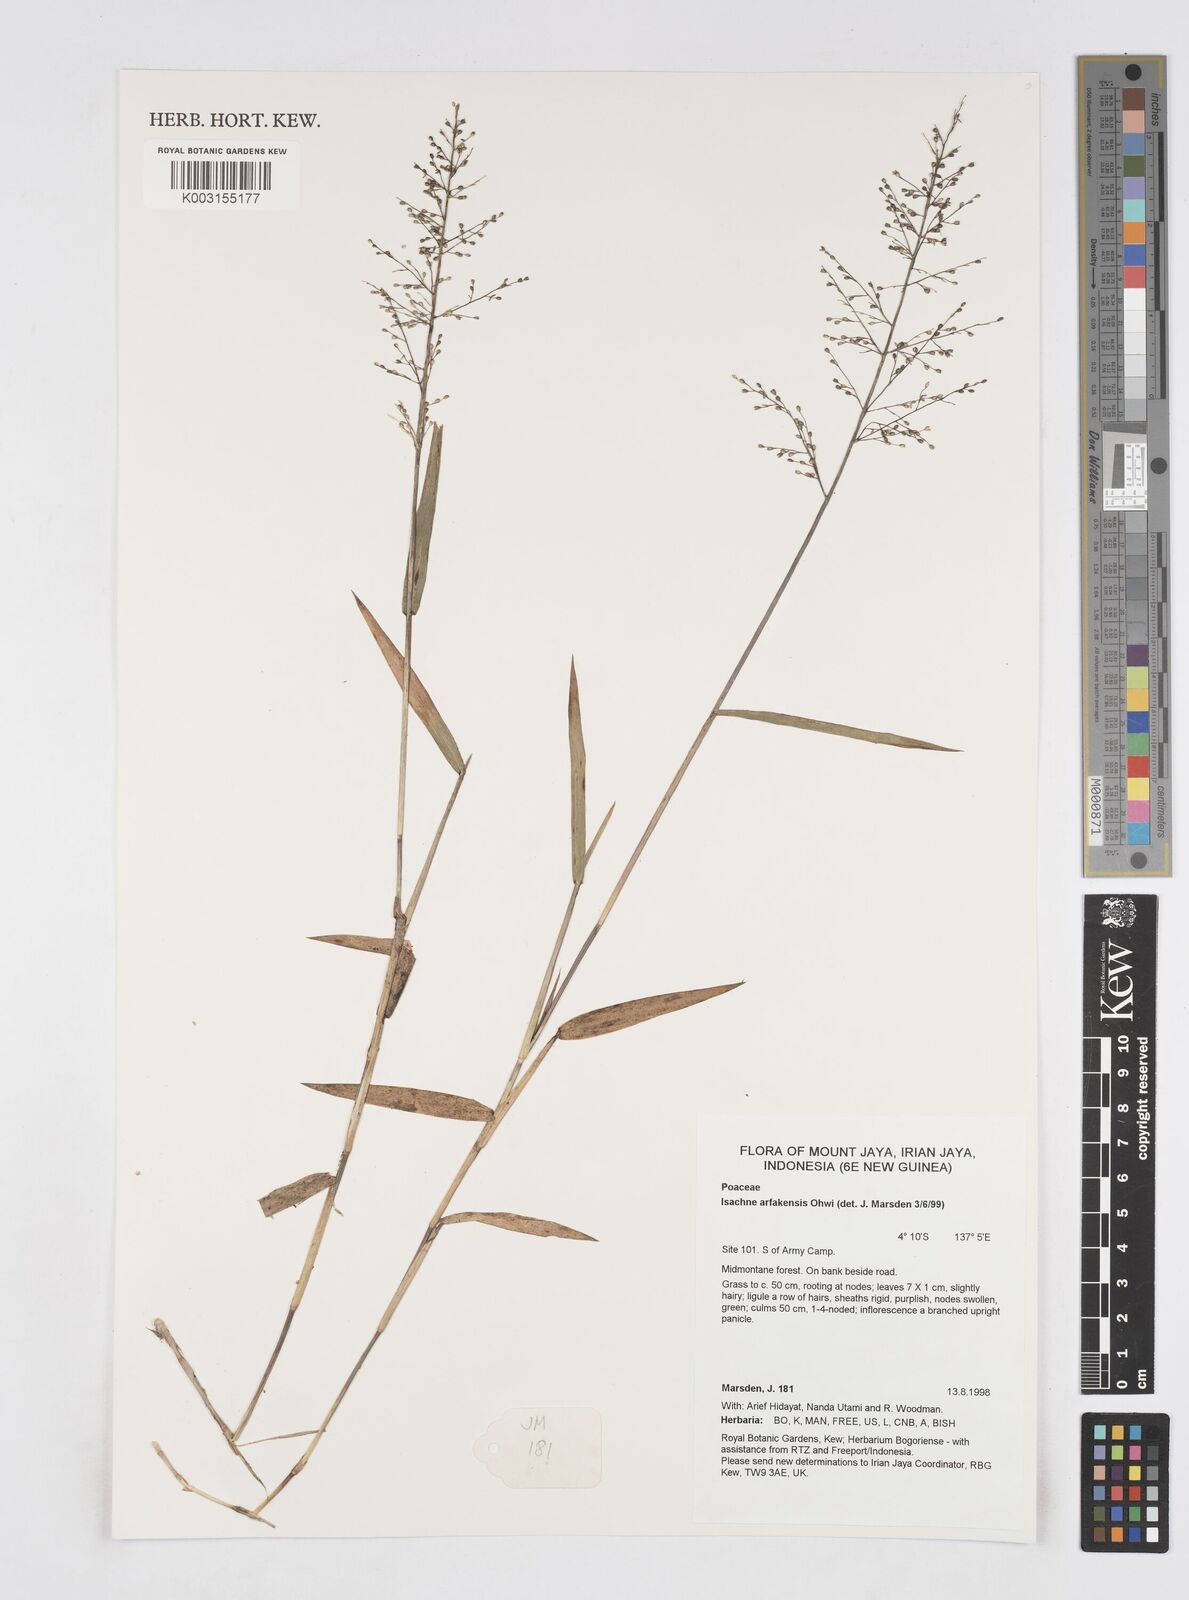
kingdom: Plantae
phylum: Tracheophyta
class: Liliopsida
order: Poales
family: Poaceae
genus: Isachne
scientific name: Isachne arfakensis
